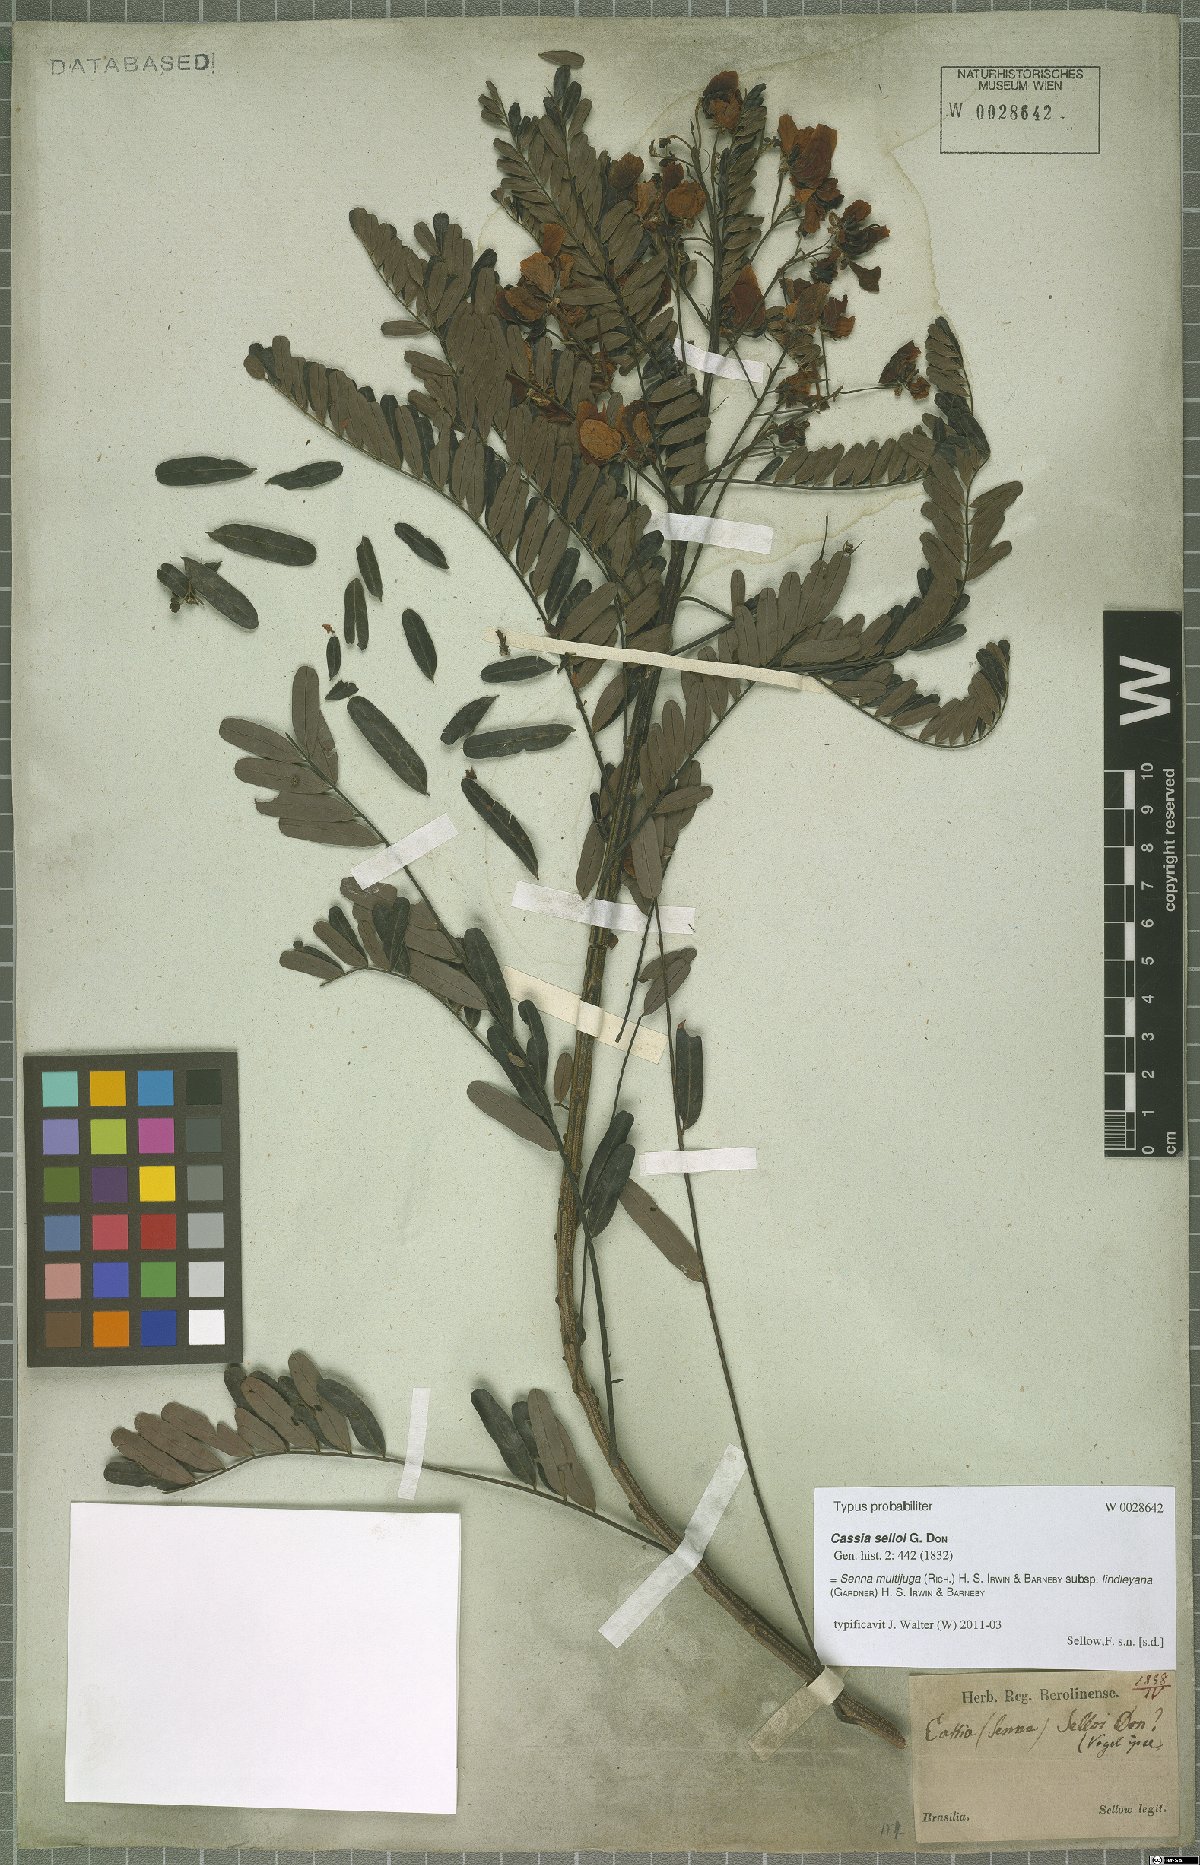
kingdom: Plantae
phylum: Tracheophyta
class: Magnoliopsida
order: Fabales
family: Fabaceae
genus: Senna
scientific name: Senna multijuga
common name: False sicklepod
